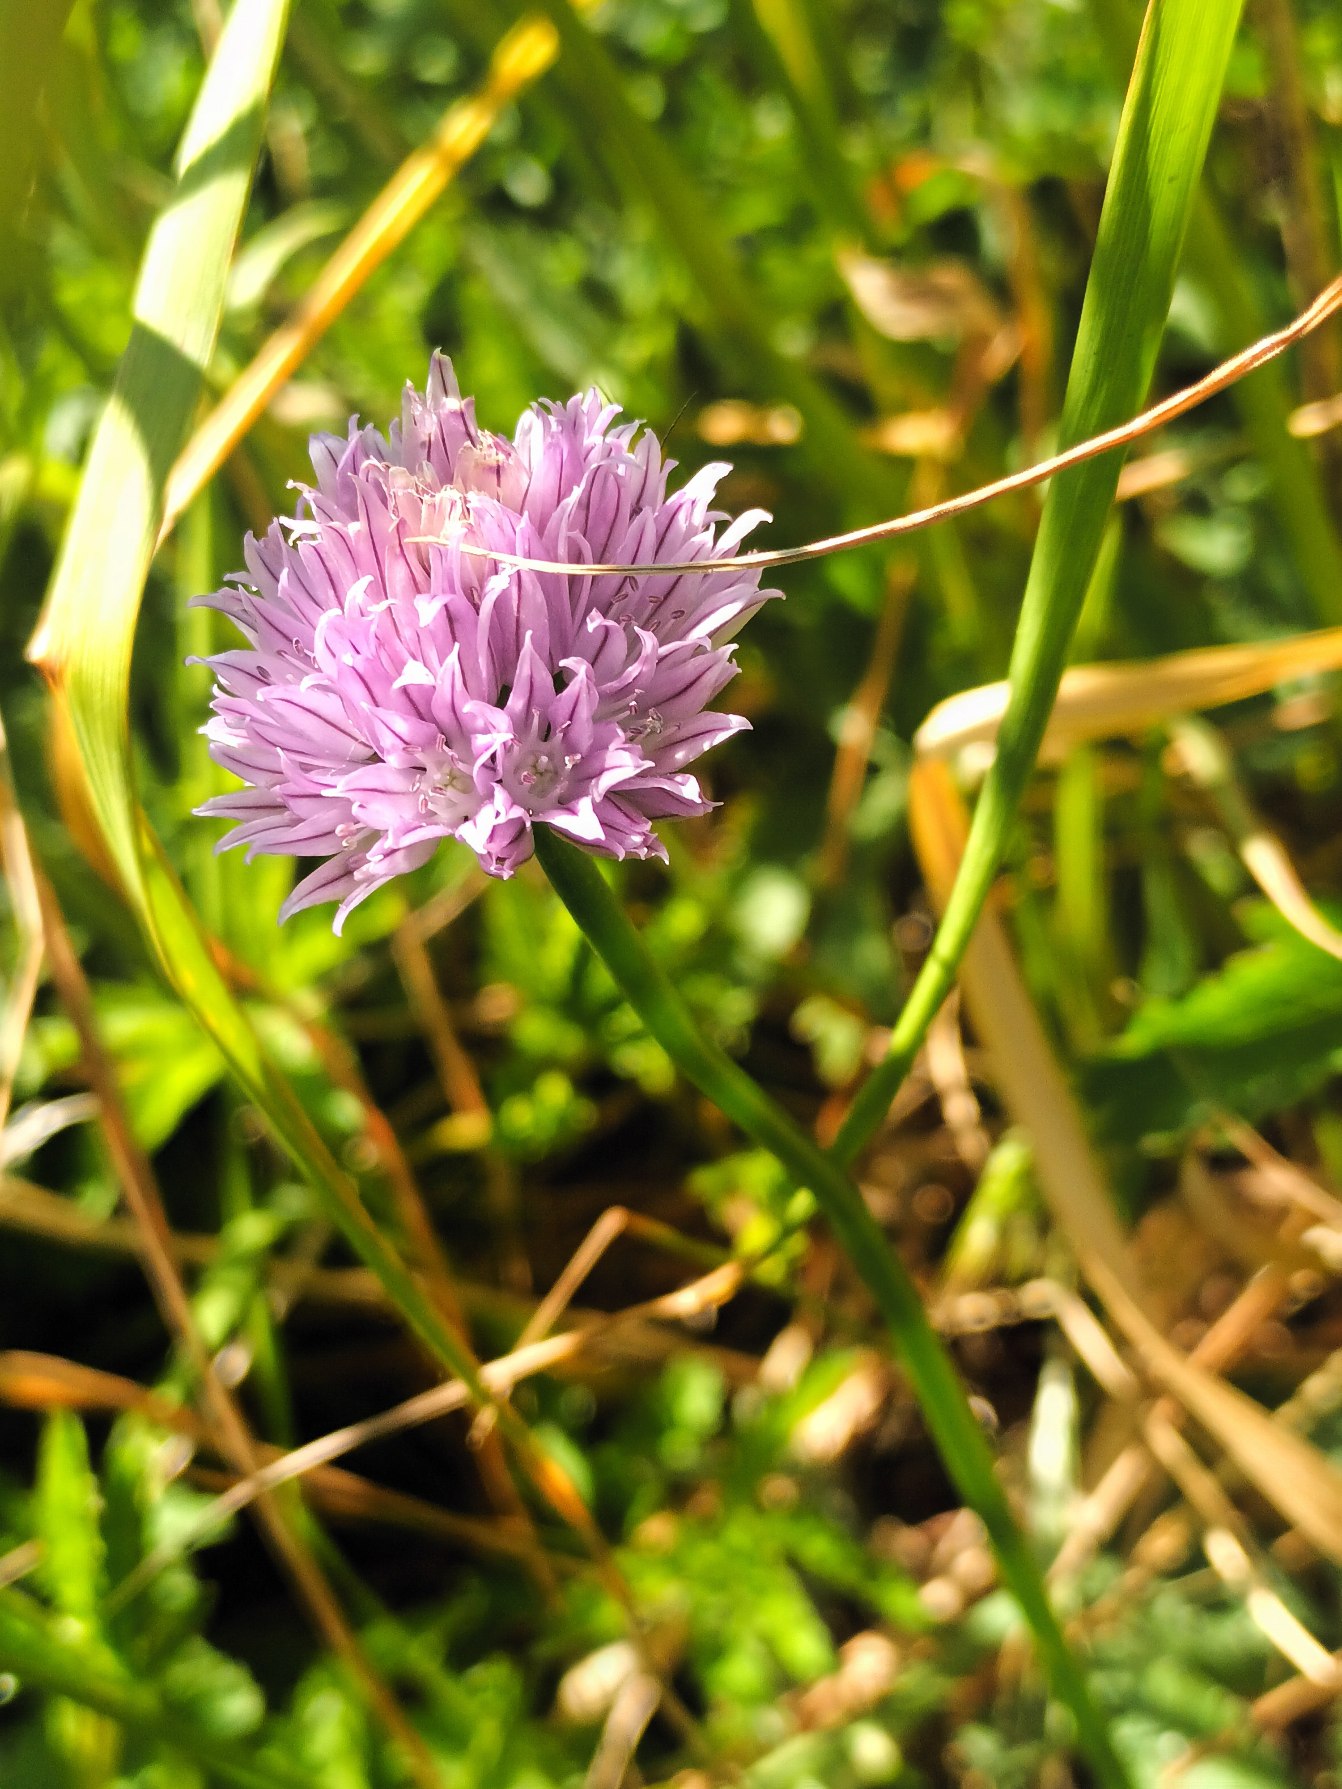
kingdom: Plantae
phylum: Tracheophyta
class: Liliopsida
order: Asparagales
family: Amaryllidaceae
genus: Allium
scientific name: Allium schoenoprasum
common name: Pur-løg
